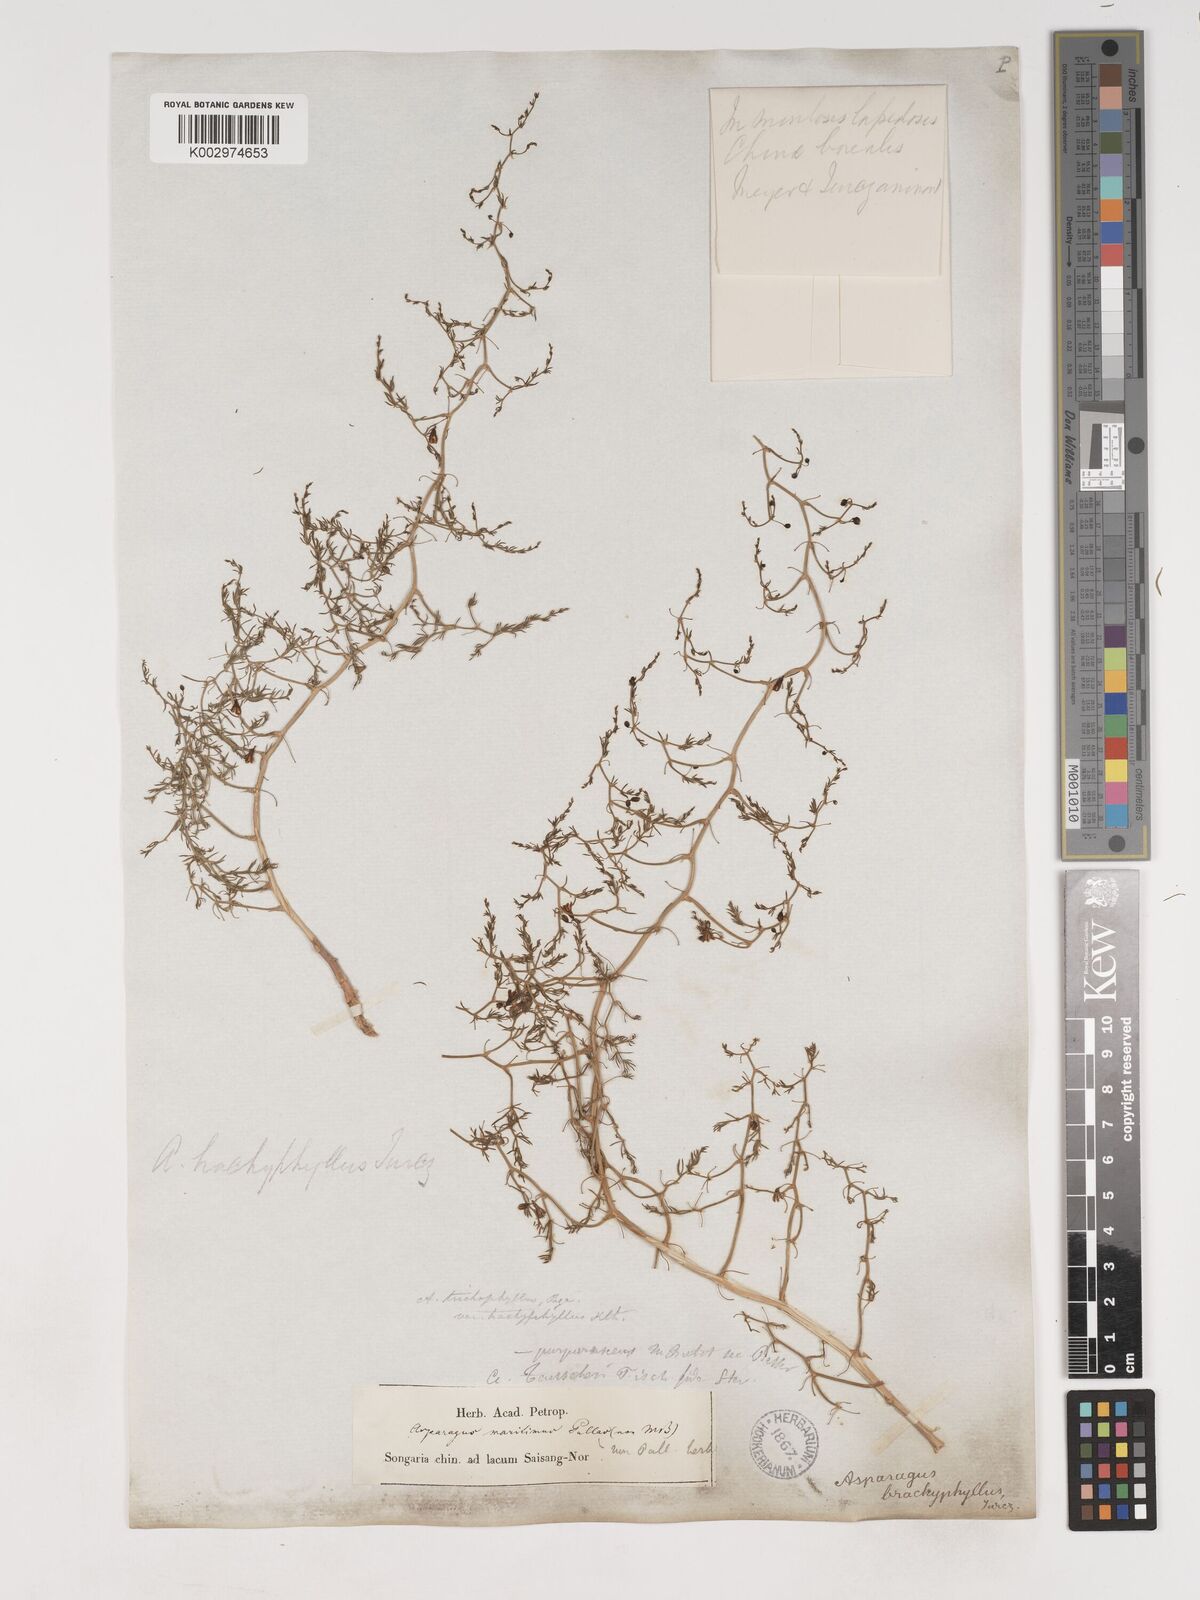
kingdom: Plantae
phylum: Tracheophyta
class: Liliopsida
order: Asparagales
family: Asparagaceae
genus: Asparagus
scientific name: Asparagus brachyphyllus
